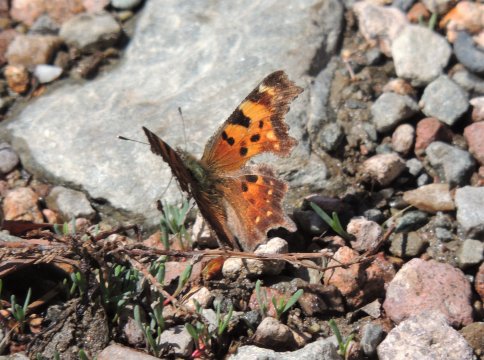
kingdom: Animalia
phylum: Arthropoda
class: Insecta
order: Lepidoptera
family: Nymphalidae
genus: Polygonia
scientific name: Polygonia faunus
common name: Green Comma
